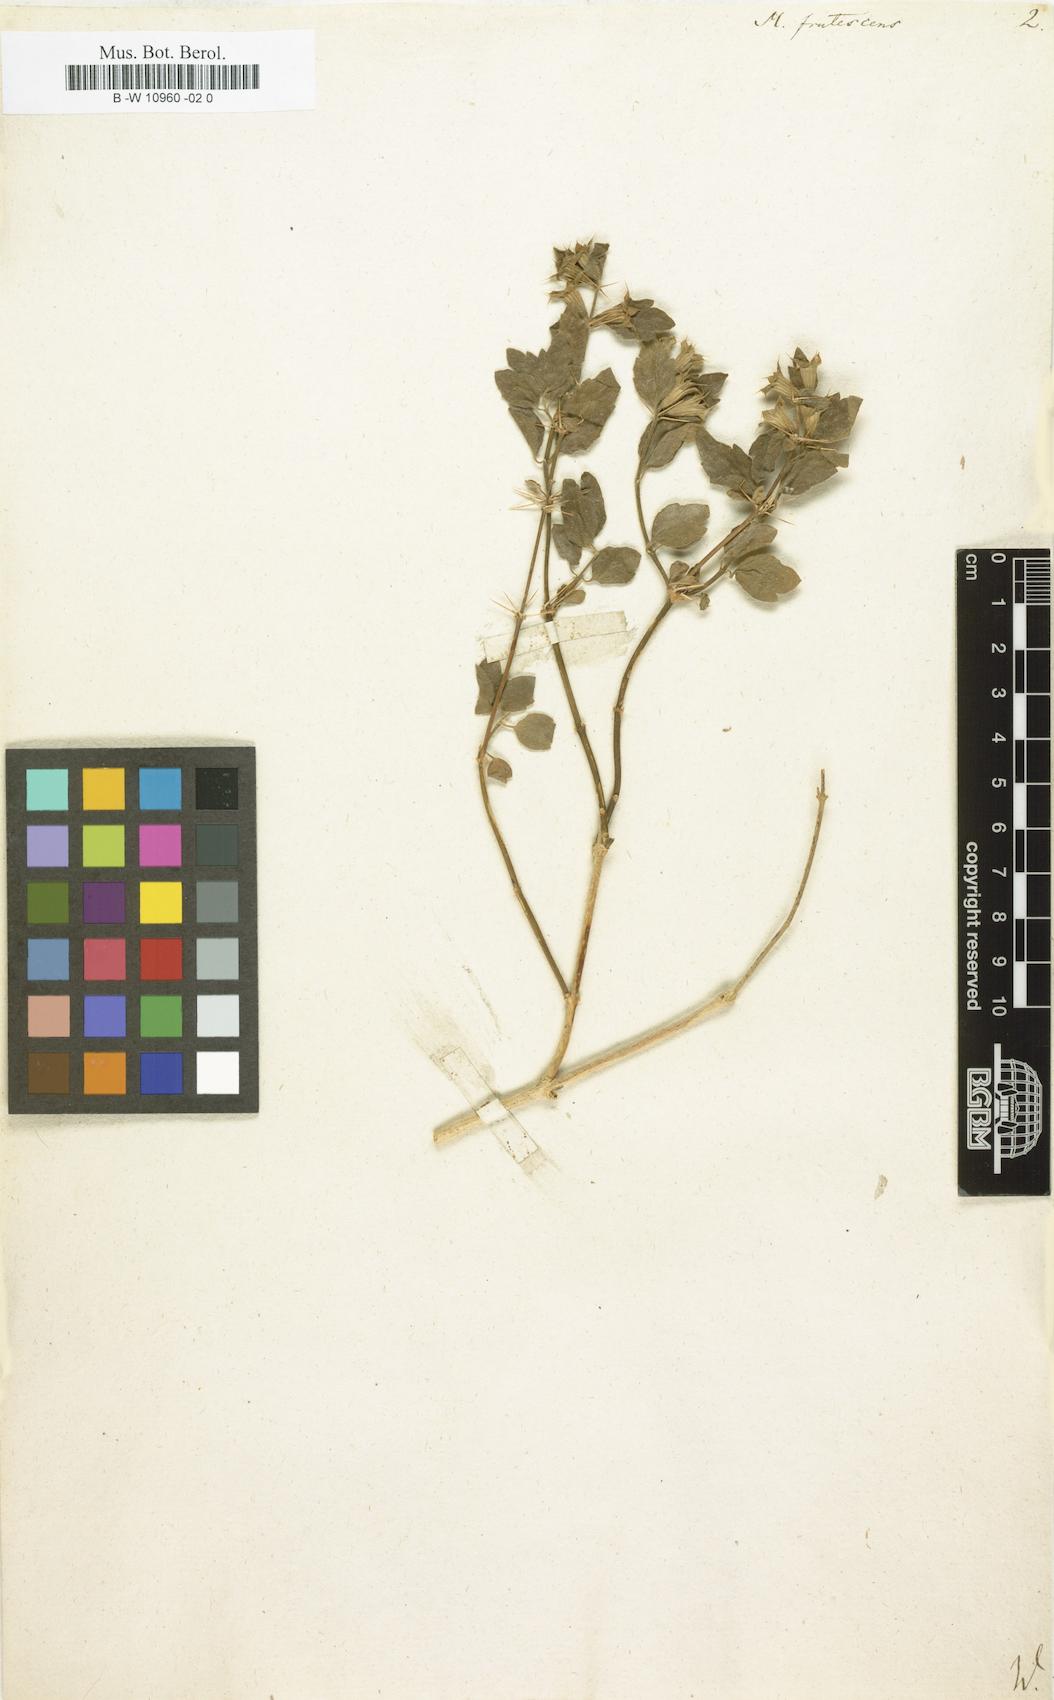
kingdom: Plantae
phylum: Tracheophyta
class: Magnoliopsida
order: Lamiales
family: Lamiaceae
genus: Moluccella
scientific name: Moluccella frutescens
